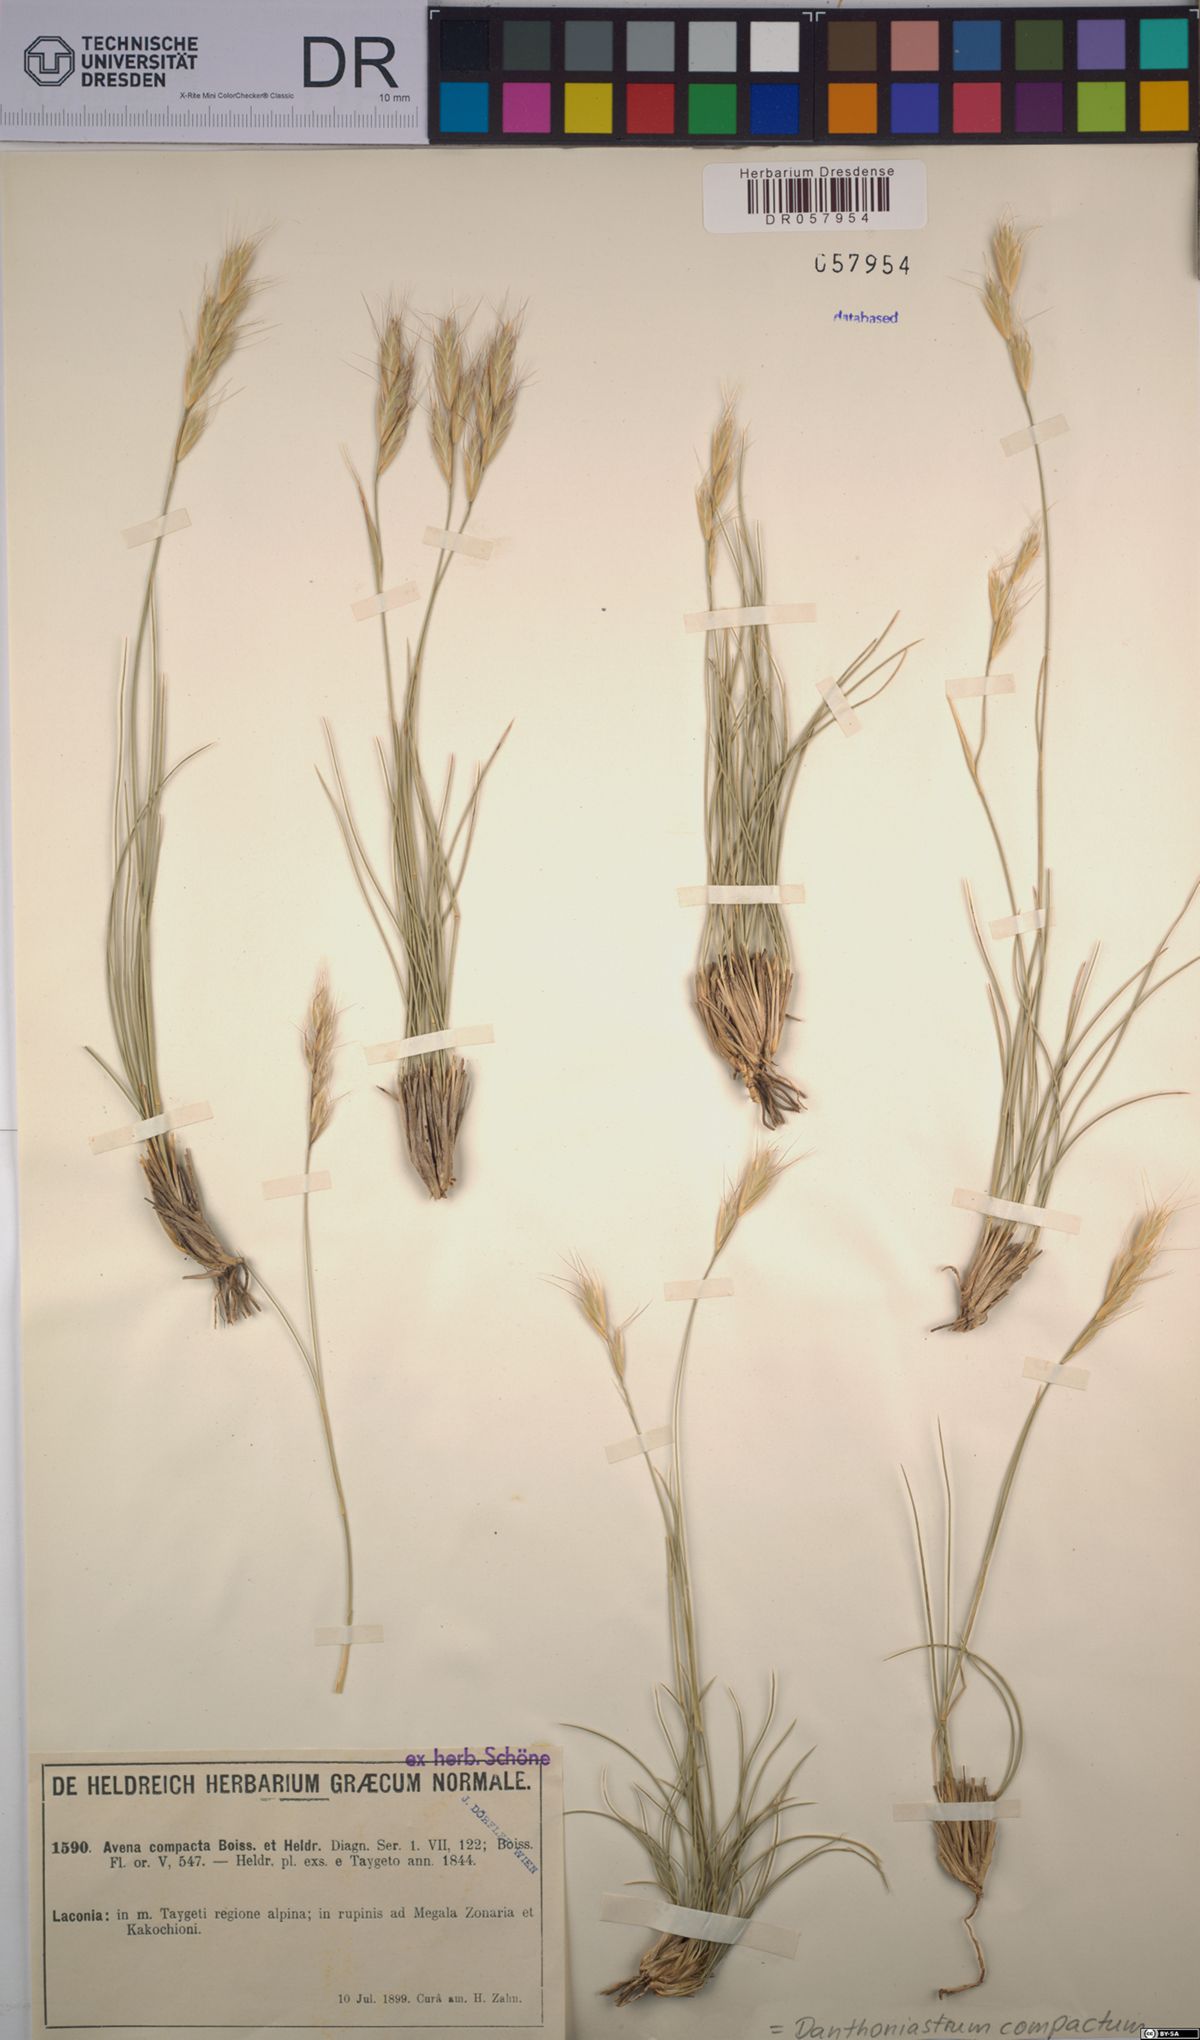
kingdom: Plantae
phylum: Tracheophyta
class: Liliopsida
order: Poales
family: Poaceae
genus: Danthoniastrum
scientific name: Danthoniastrum compactum
